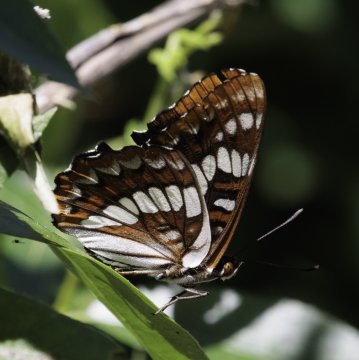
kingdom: Animalia
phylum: Arthropoda
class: Insecta
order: Lepidoptera
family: Nymphalidae
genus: Limenitis
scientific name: Limenitis lorquini
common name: Lorquin's Admiral
